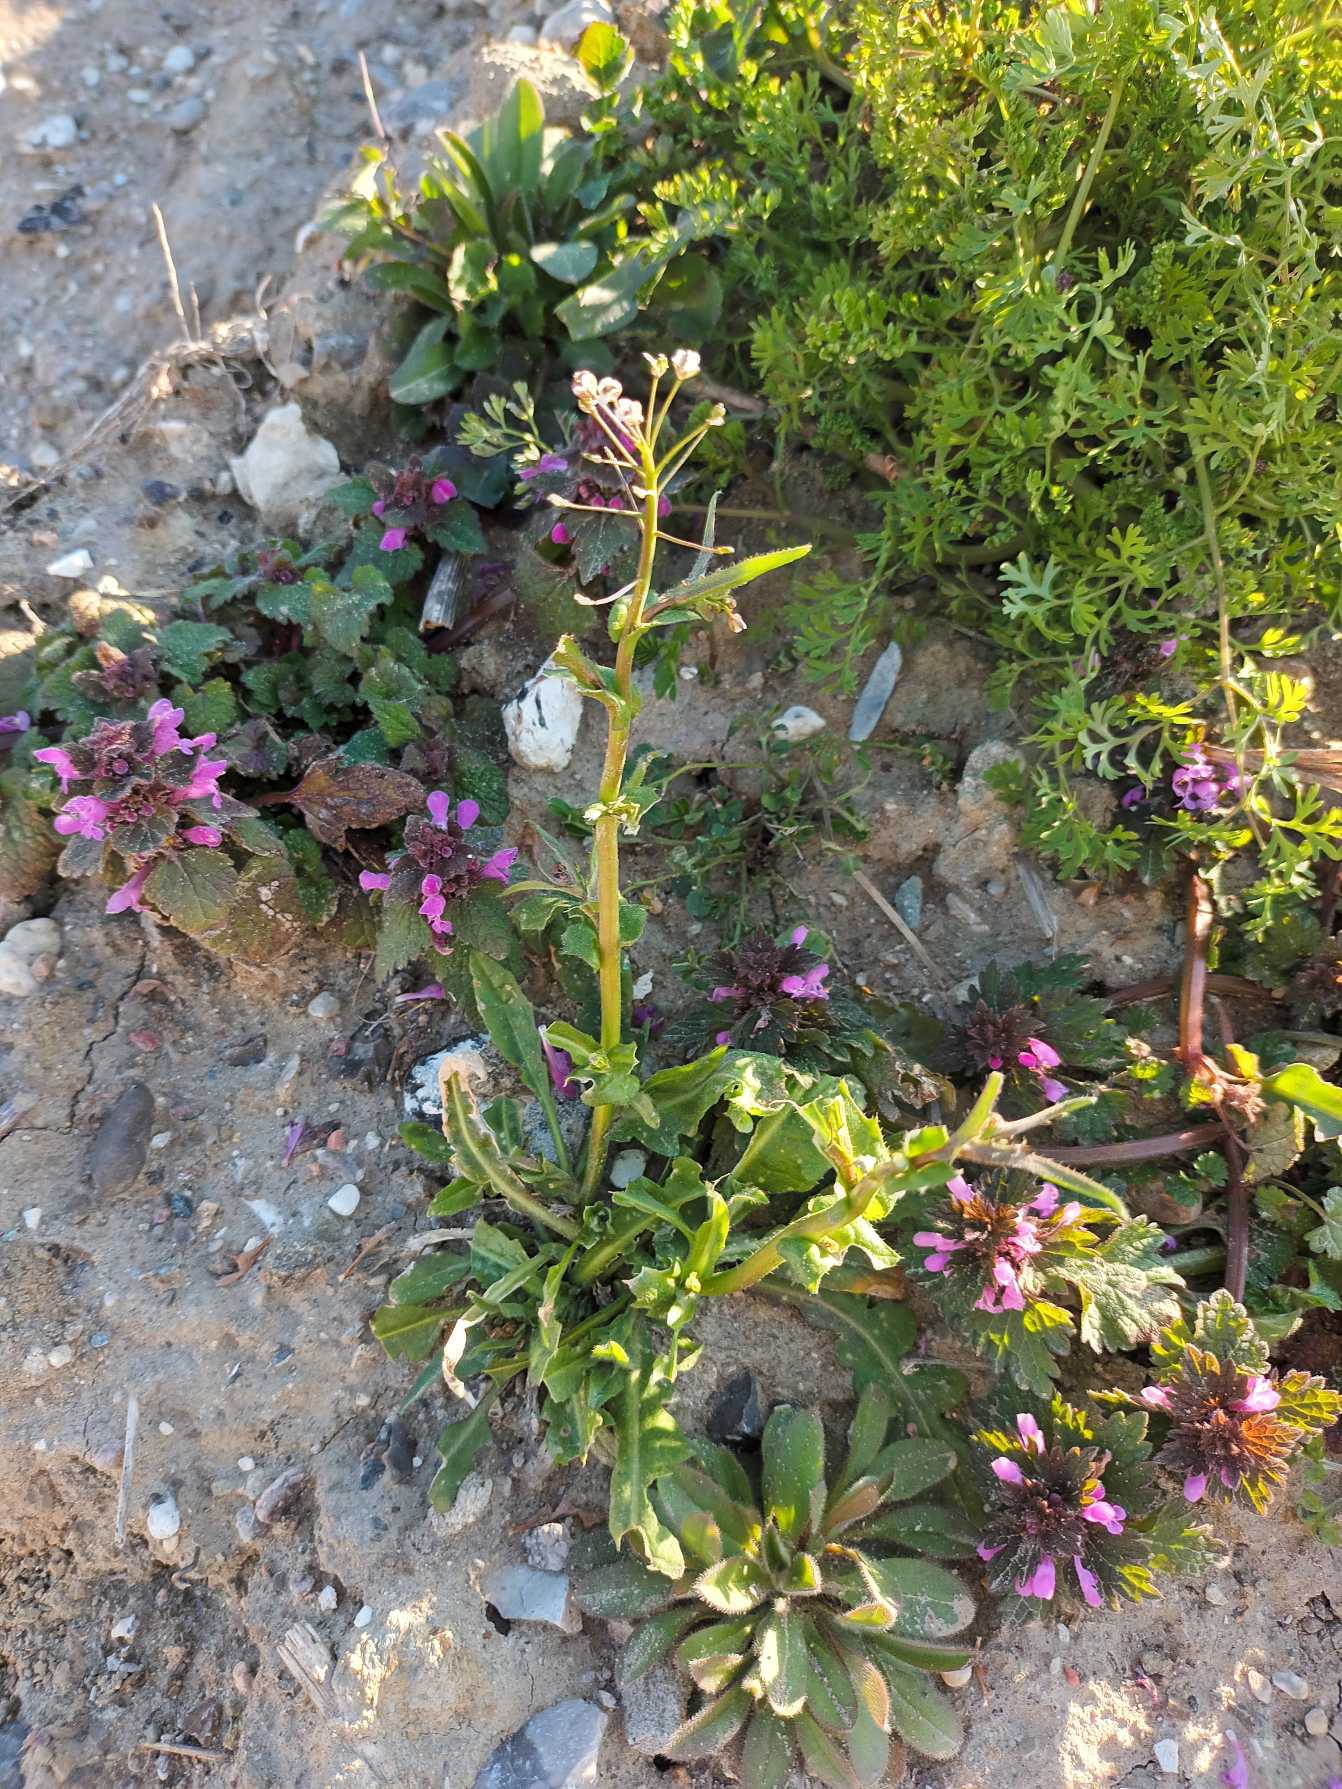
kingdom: Plantae
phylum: Tracheophyta
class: Magnoliopsida
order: Brassicales
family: Brassicaceae
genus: Capsella
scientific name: Capsella bursa-pastoris
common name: Hyrdetaske
